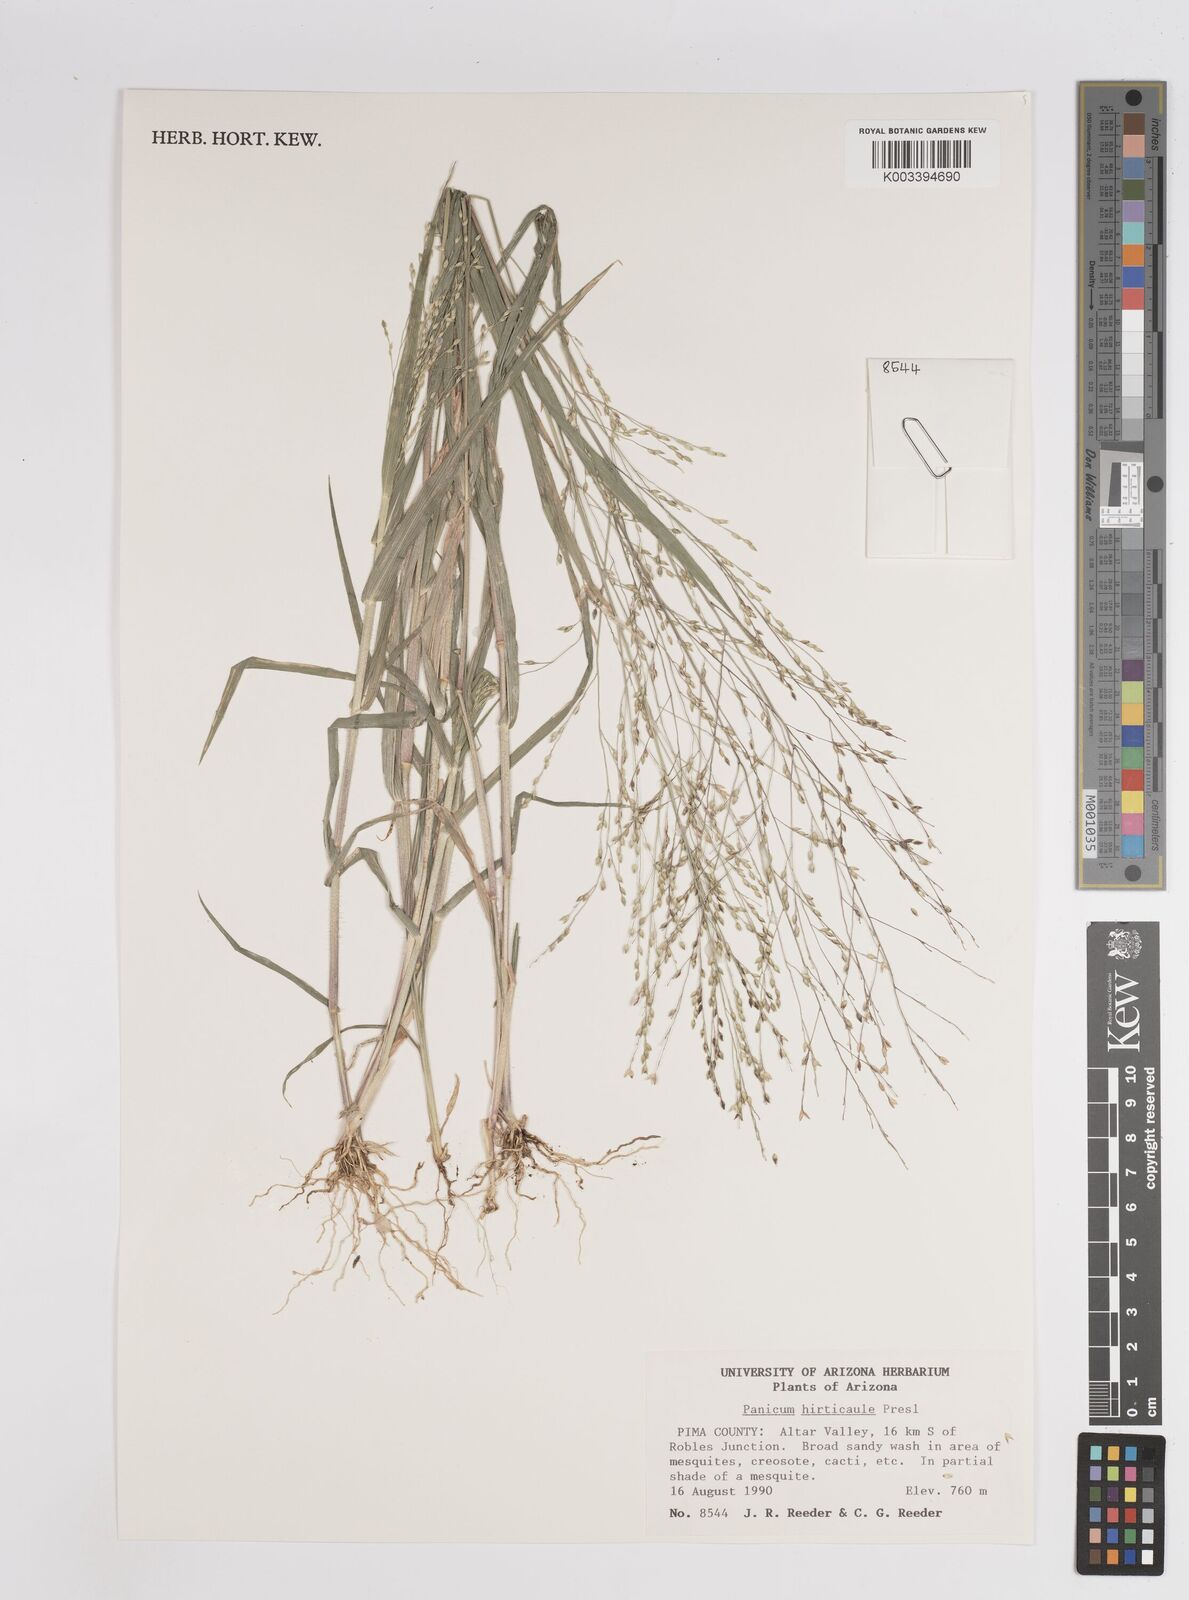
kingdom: Plantae
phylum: Tracheophyta
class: Liliopsida
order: Poales
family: Poaceae
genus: Panicum
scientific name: Panicum
